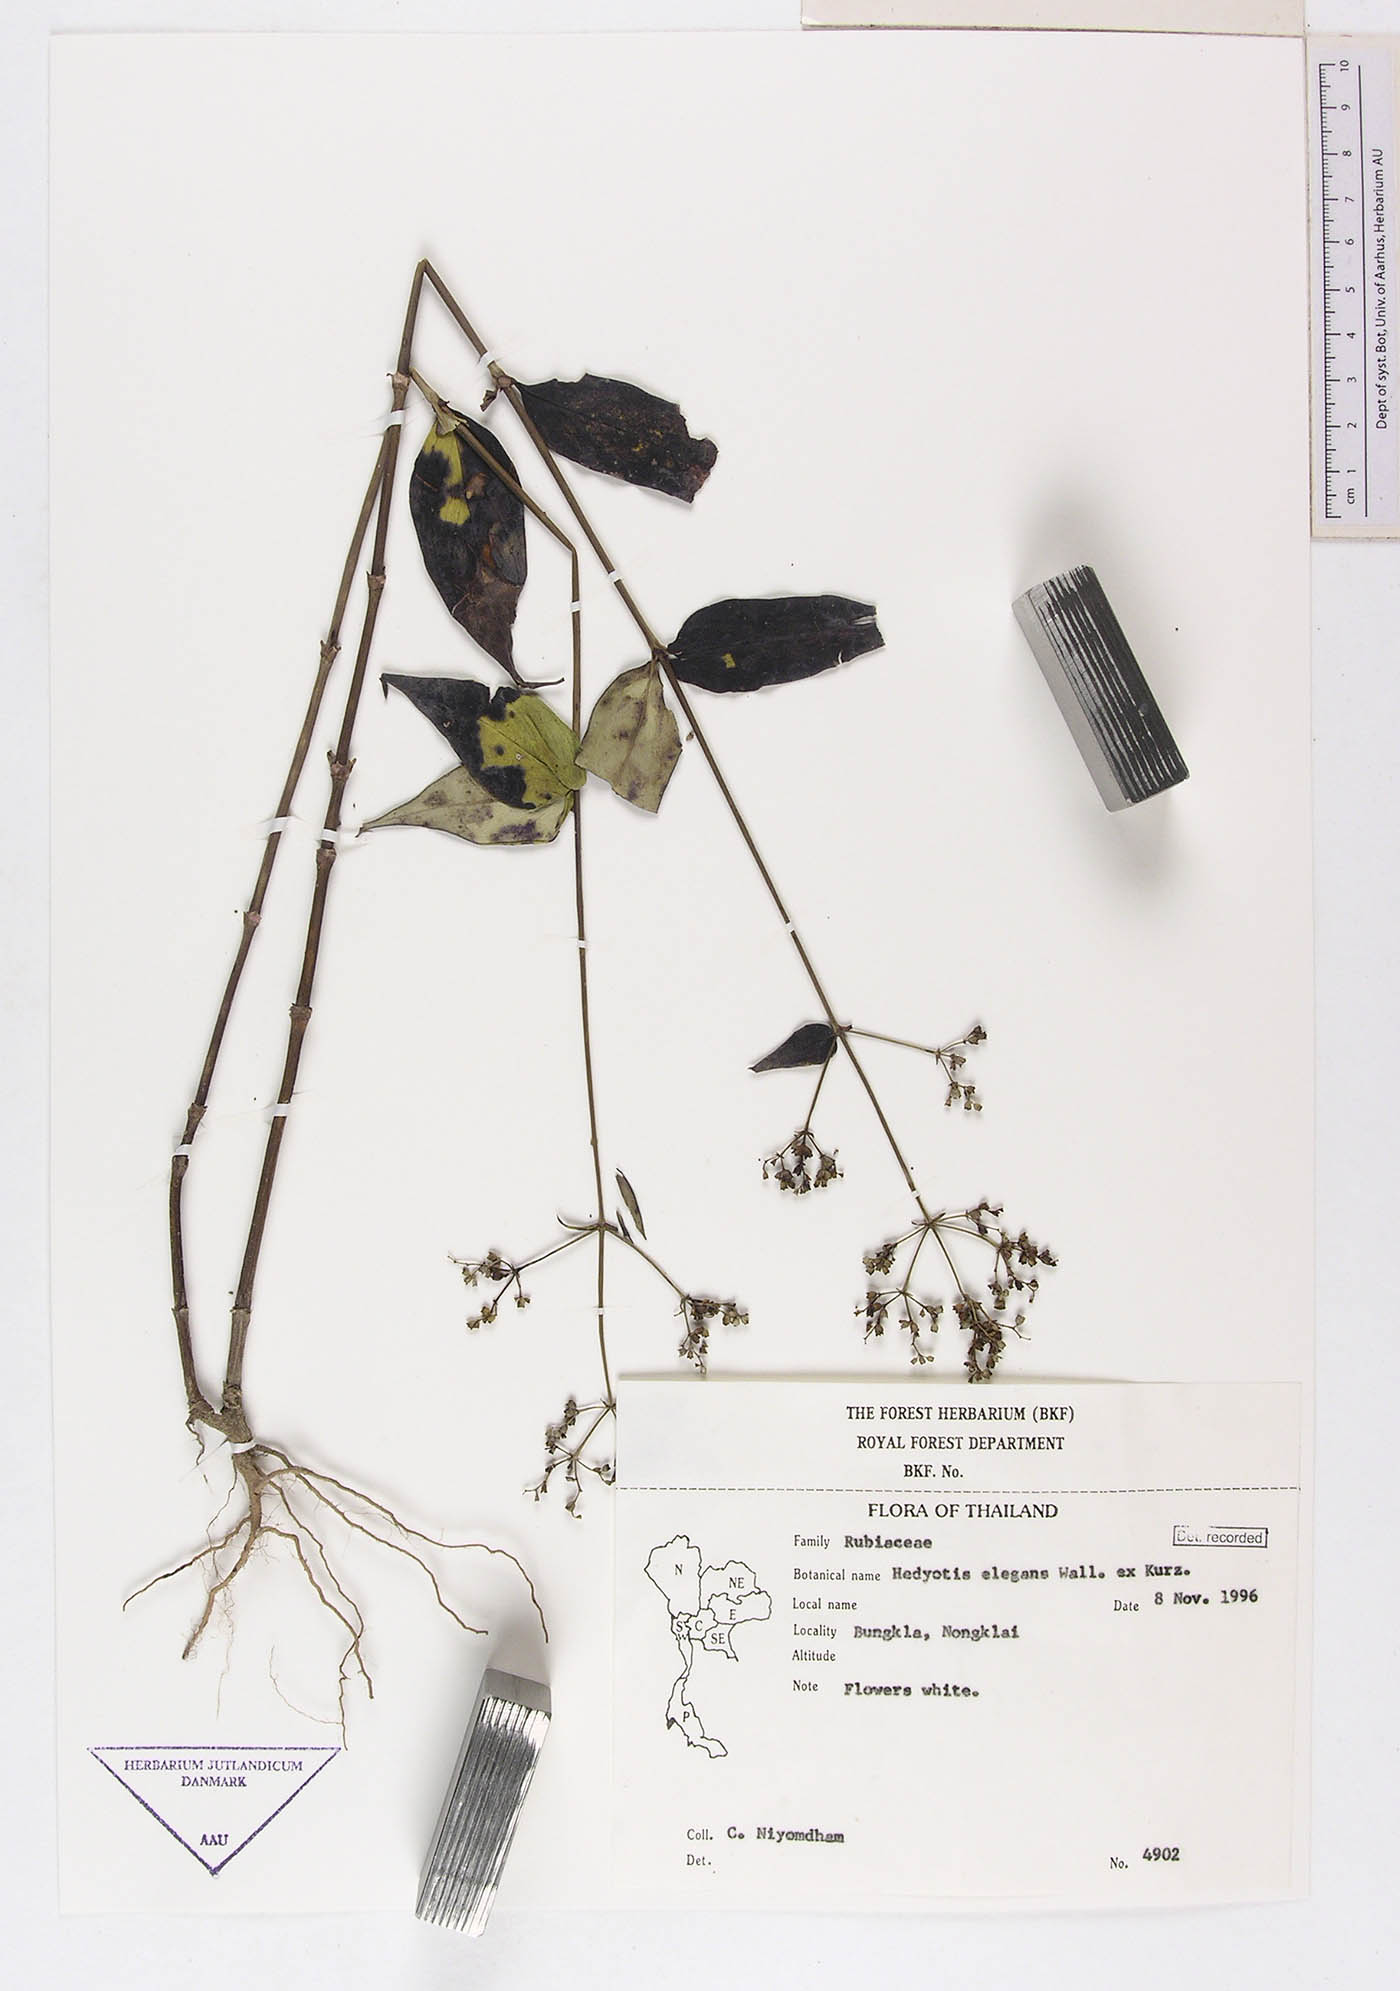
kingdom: Plantae
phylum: Tracheophyta
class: Magnoliopsida
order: Gentianales
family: Rubiaceae
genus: Hedyotis
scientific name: Hedyotis elegans
